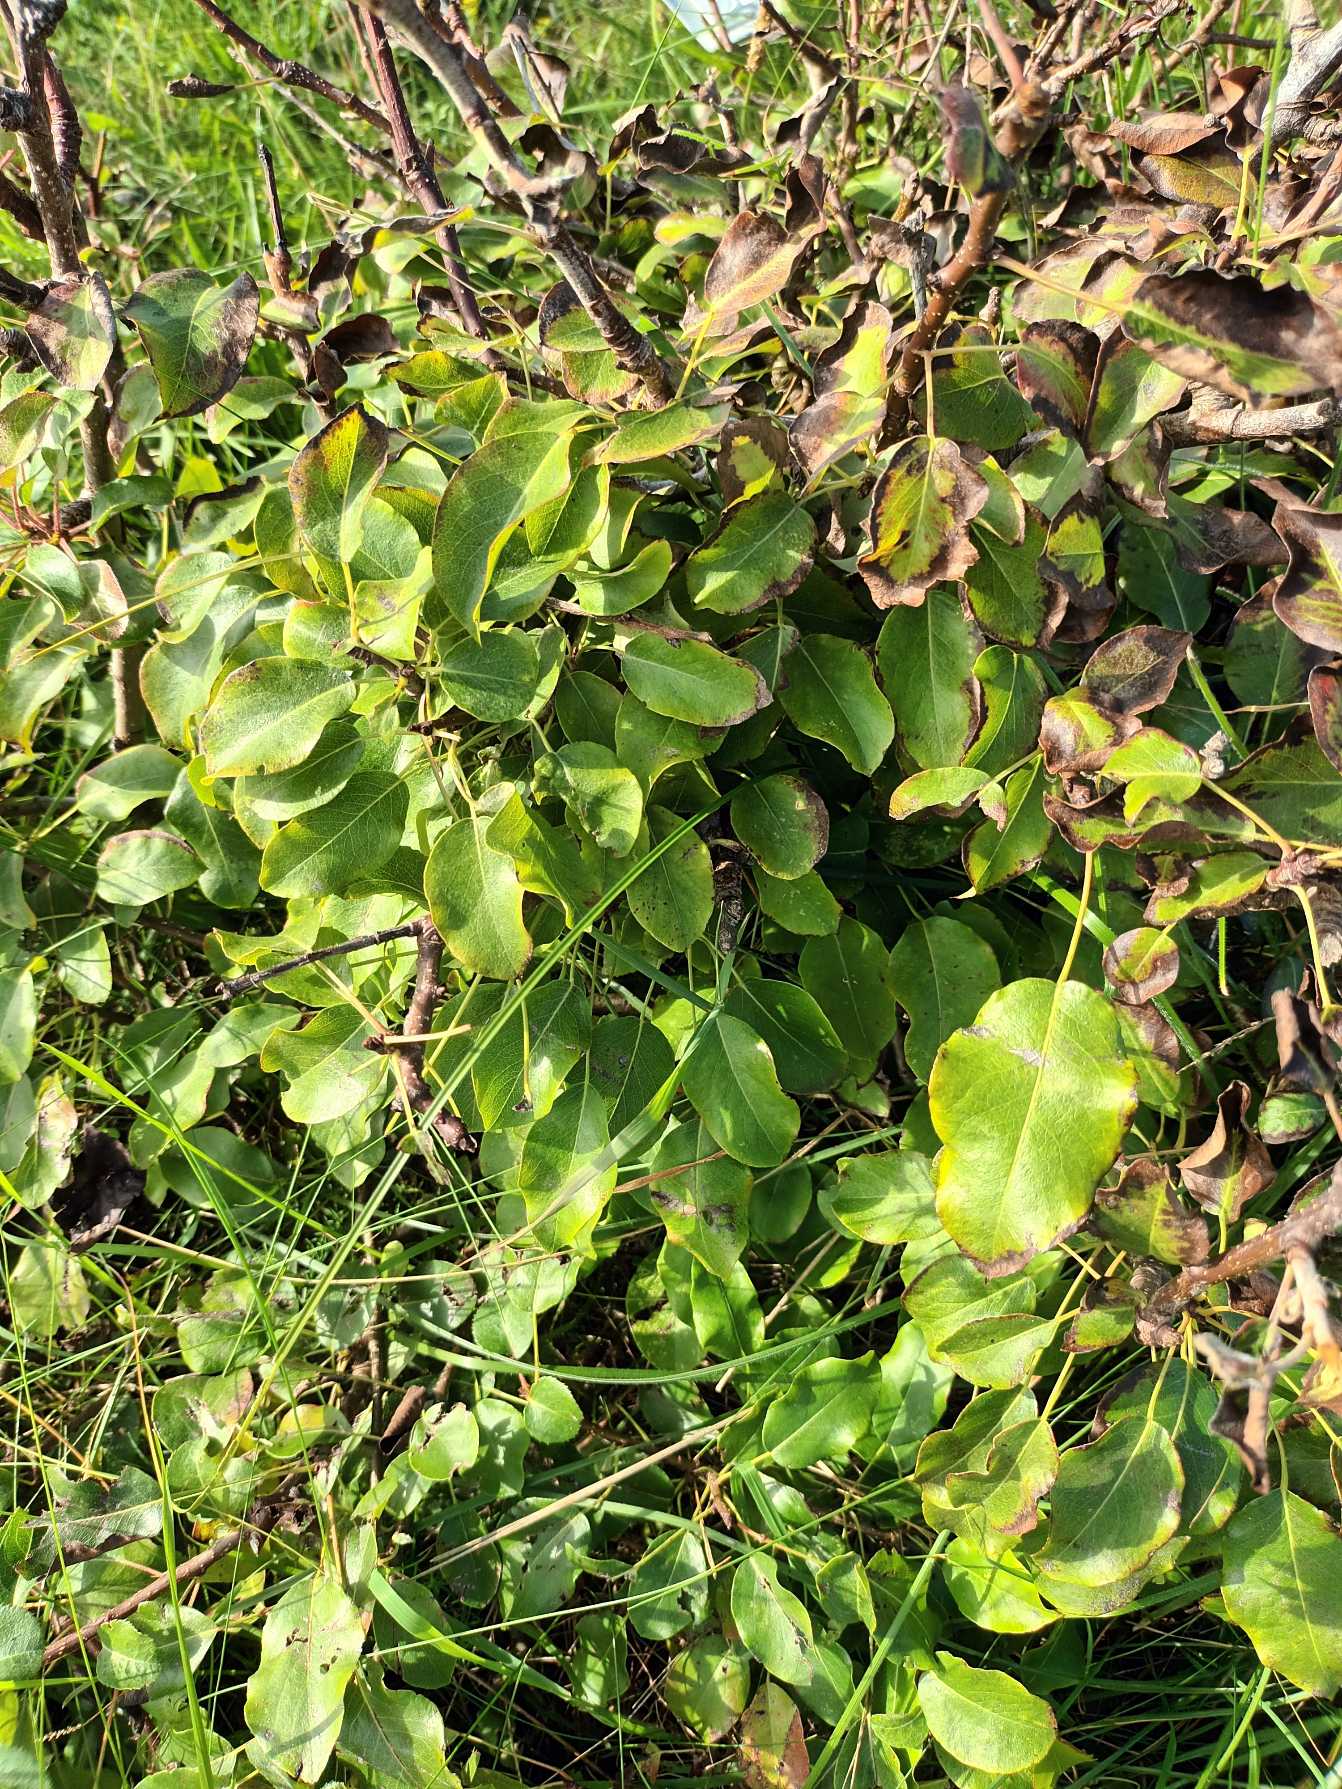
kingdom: Plantae
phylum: Tracheophyta
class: Magnoliopsida
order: Rosales
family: Rosaceae
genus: Pyrus
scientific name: Pyrus communis
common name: Pære
